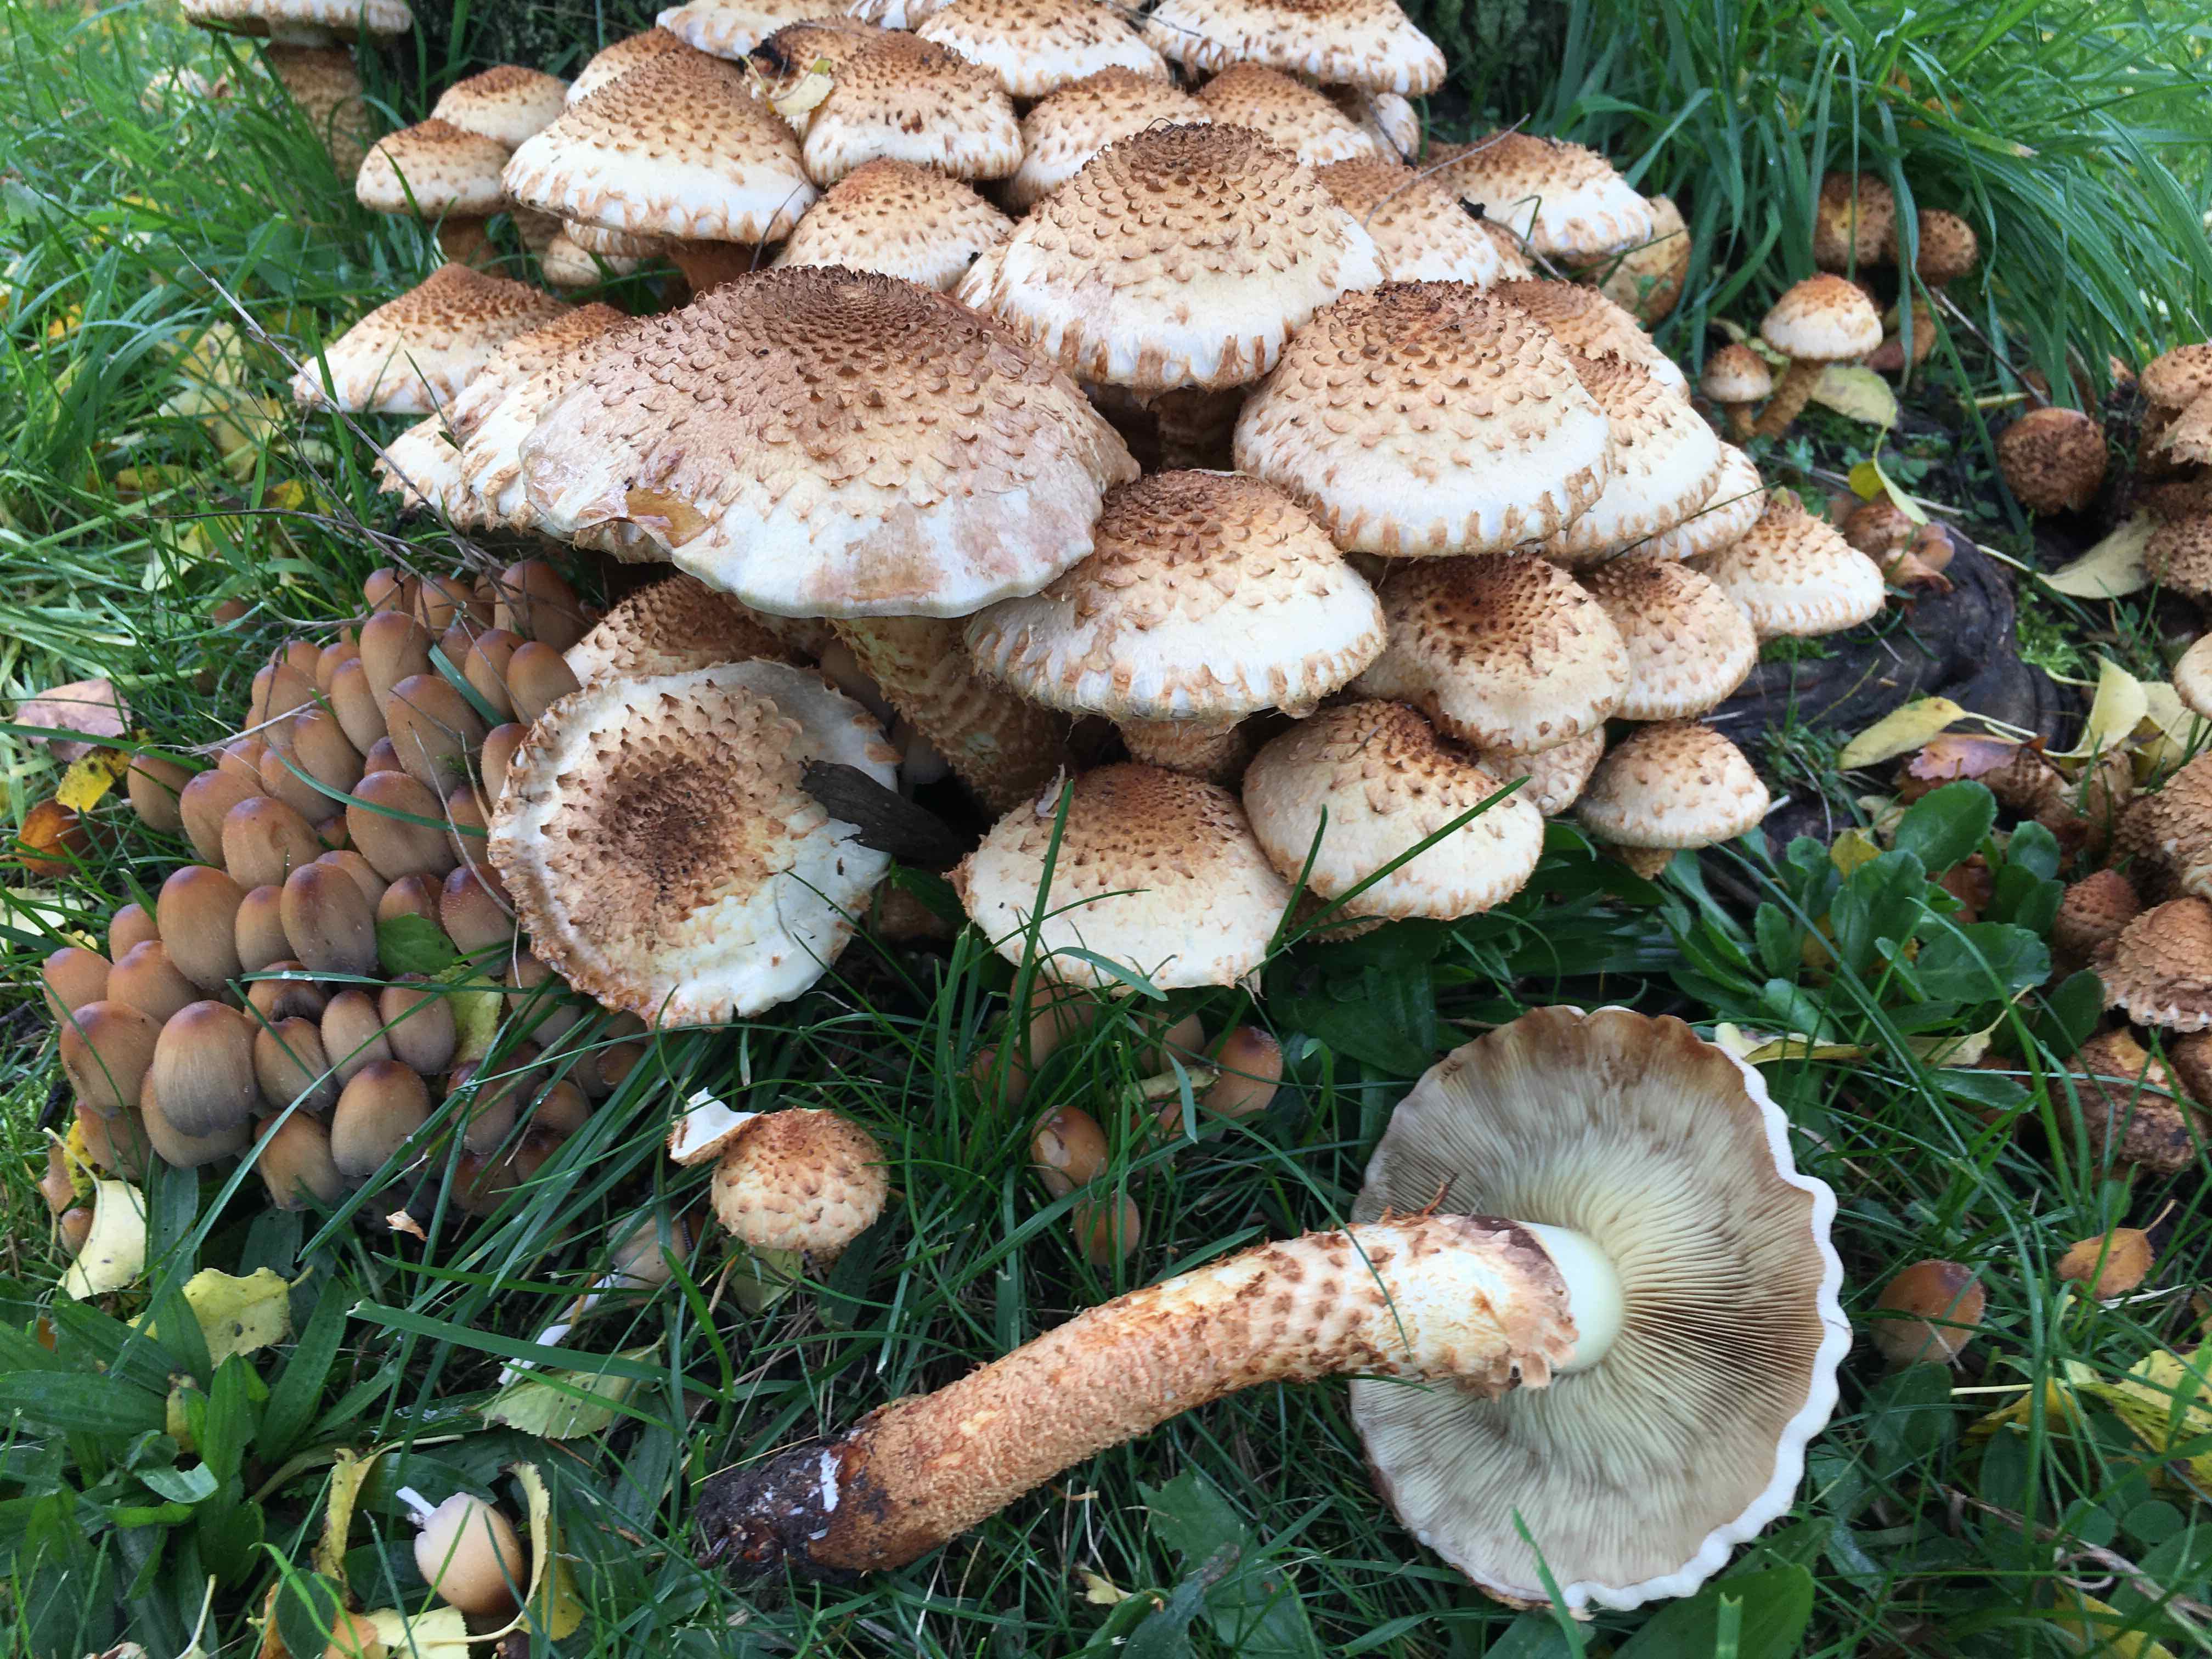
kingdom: Fungi
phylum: Basidiomycota
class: Agaricomycetes
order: Agaricales
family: Strophariaceae
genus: Pholiota
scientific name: Pholiota squarrosa
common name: krumskællet skælhat
